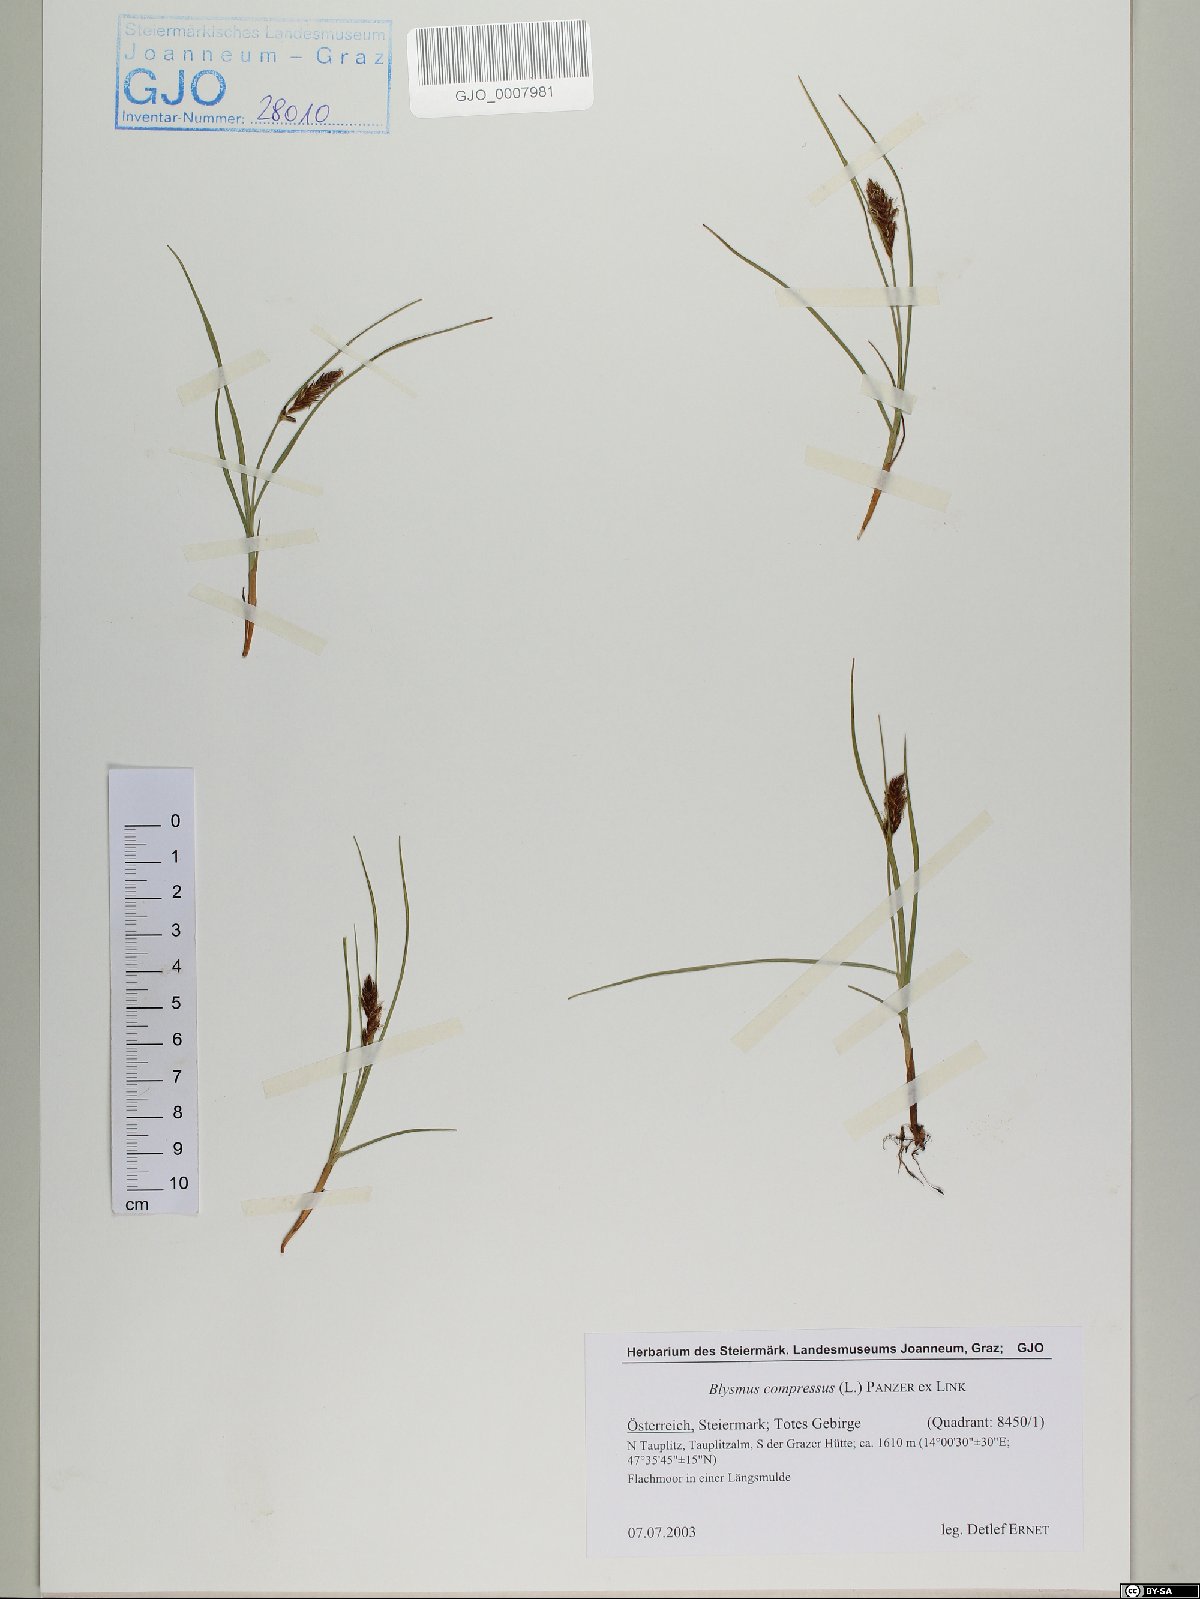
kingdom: Plantae
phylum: Tracheophyta
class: Liliopsida
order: Poales
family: Cyperaceae
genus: Blysmus
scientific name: Blysmus compressus
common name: Flat-sedge
